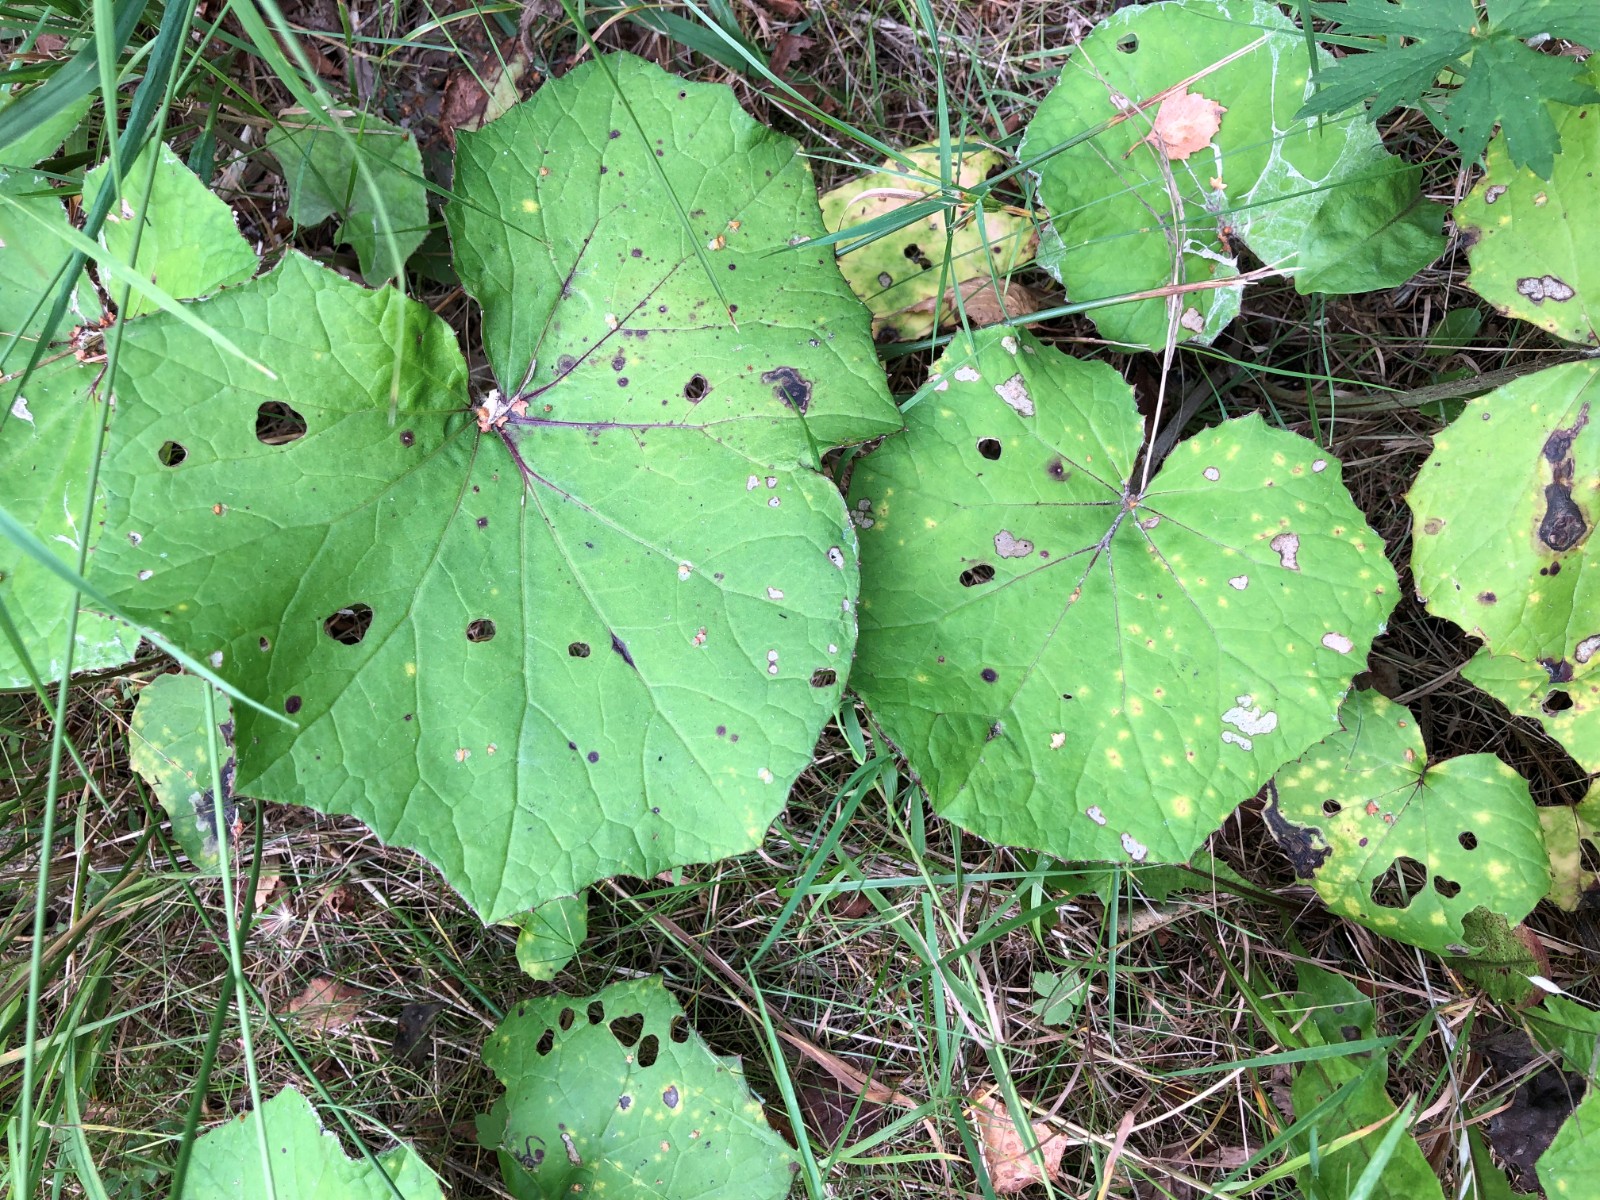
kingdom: Fungi
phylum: Basidiomycota
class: Pucciniomycetes
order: Pucciniales
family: Coleosporiaceae
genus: Coleosporium
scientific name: Coleosporium tussilaginis
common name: almindelig fyrrenålerust
